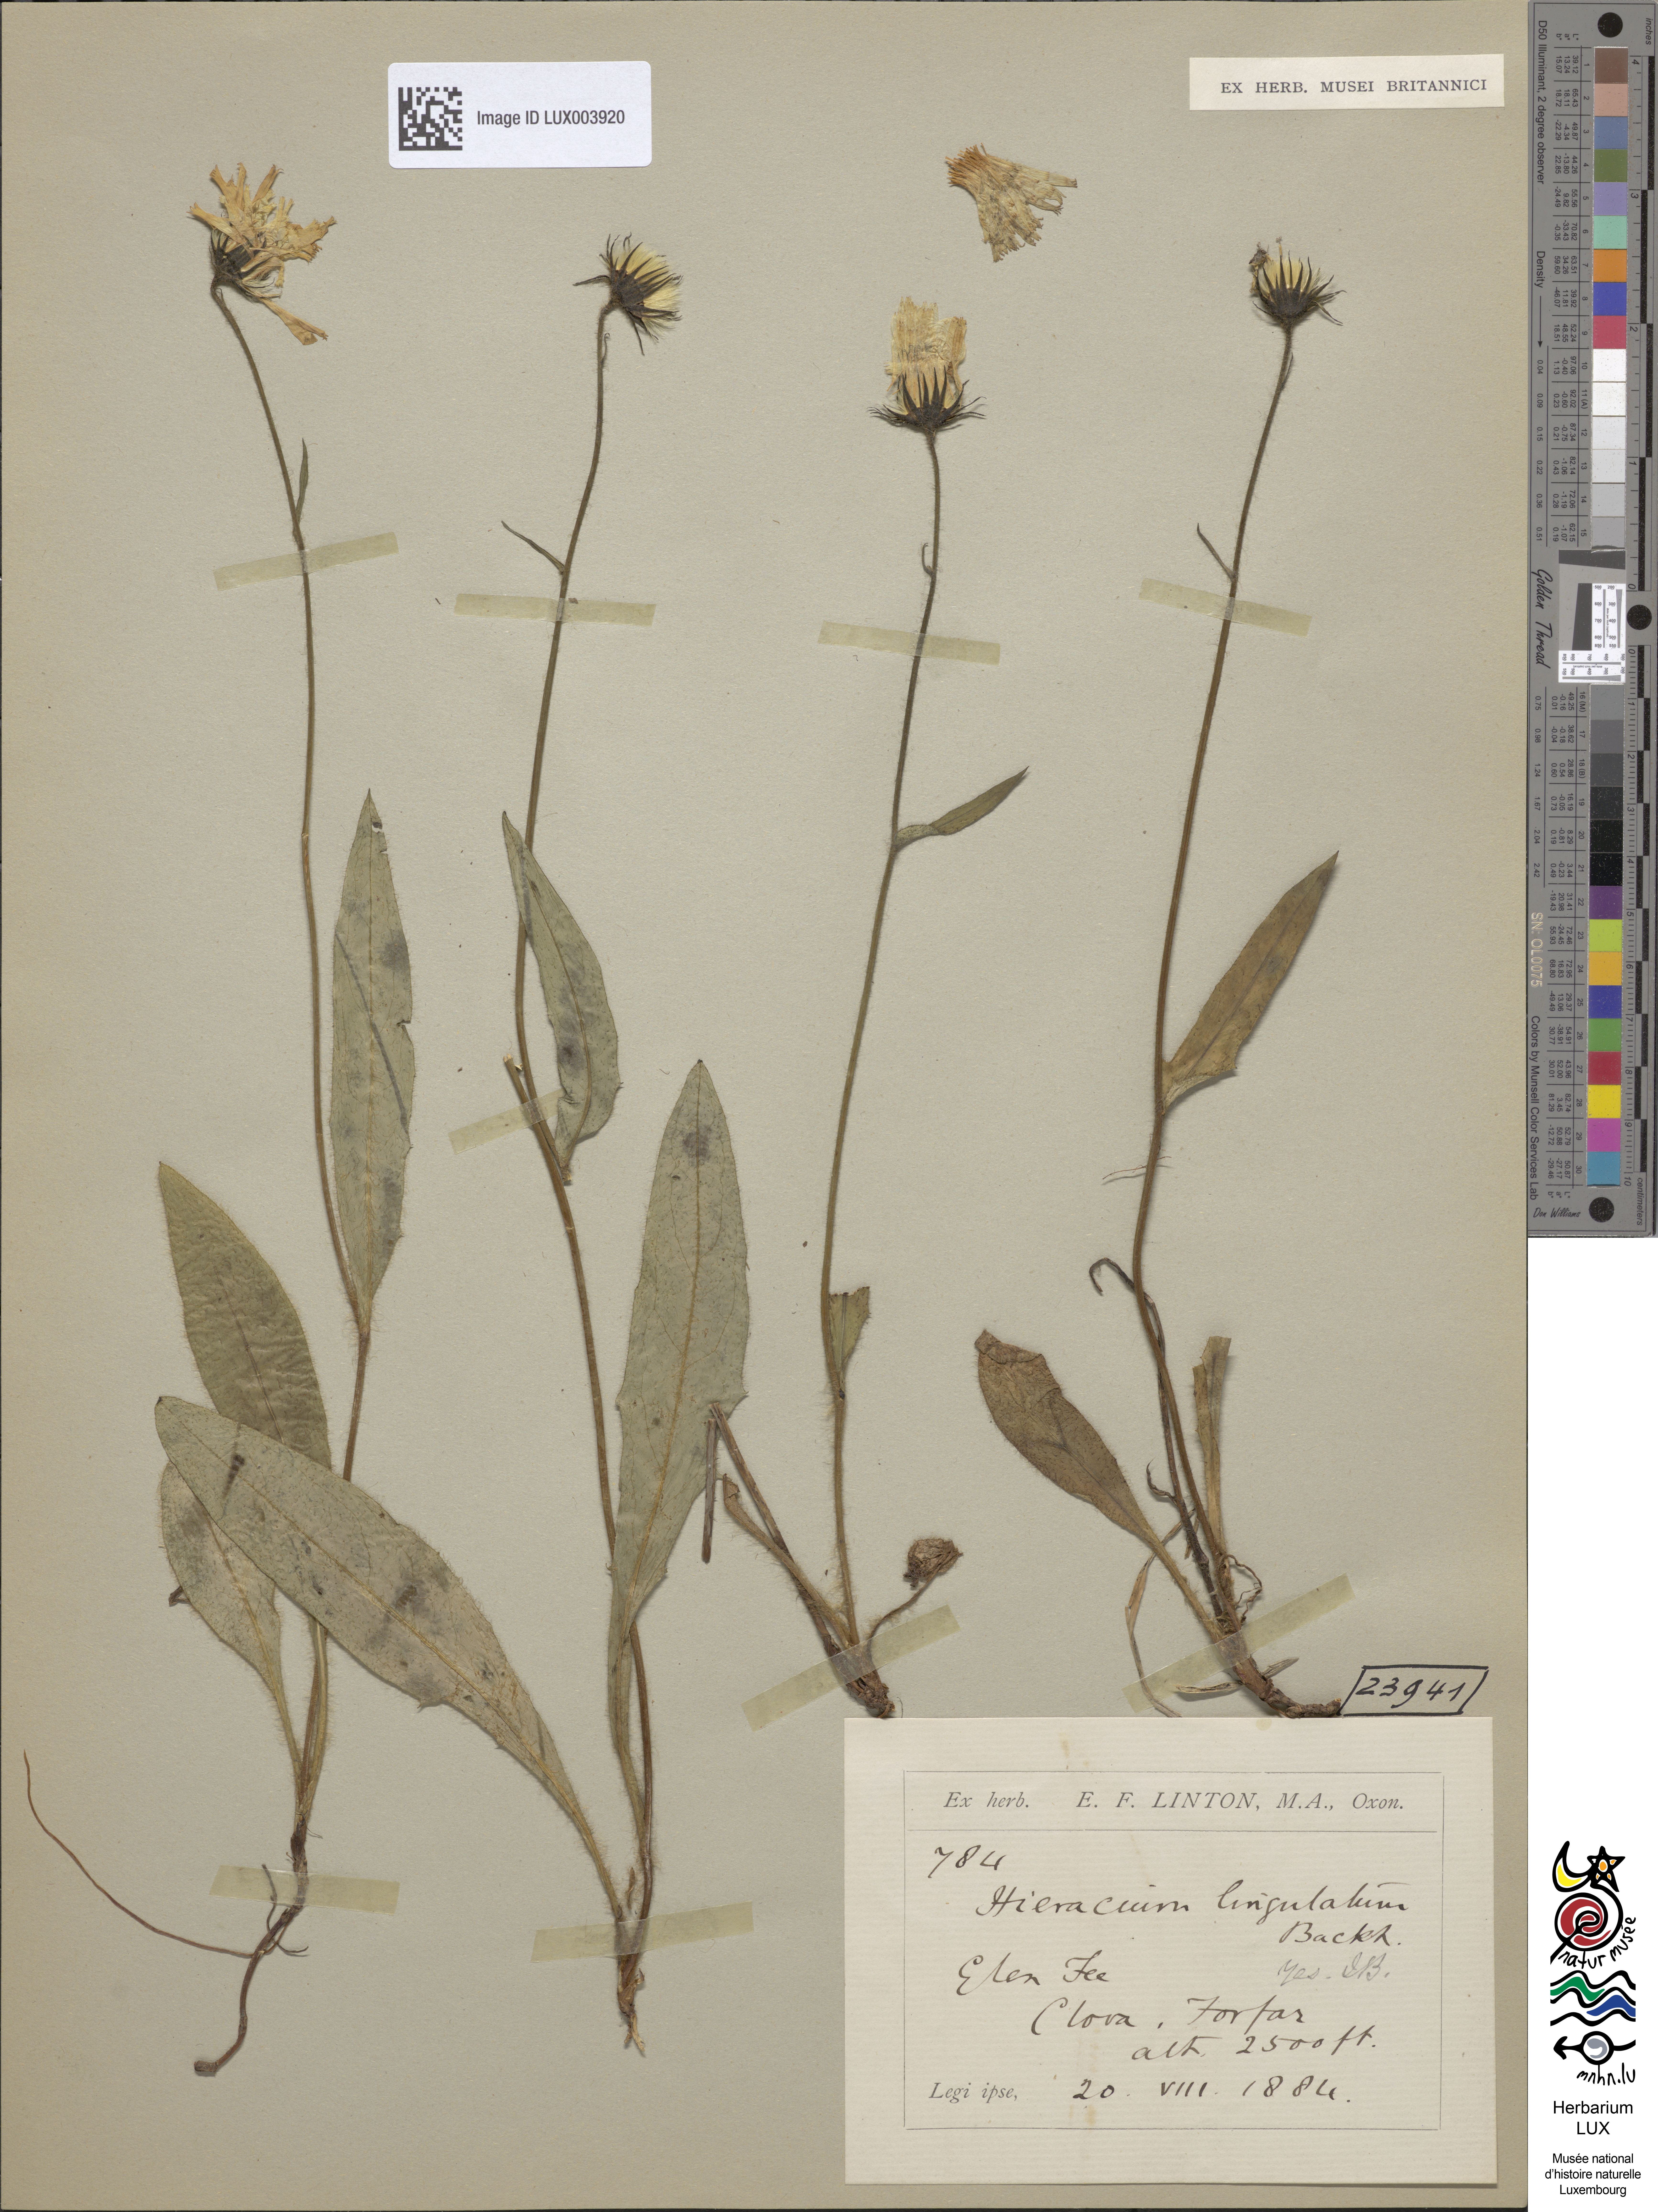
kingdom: Plantae
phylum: Tracheophyta
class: Magnoliopsida
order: Asterales
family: Asteraceae
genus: Hieracium
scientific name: Hieracium lingulatum
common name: Oblong-leaved hawkweed
